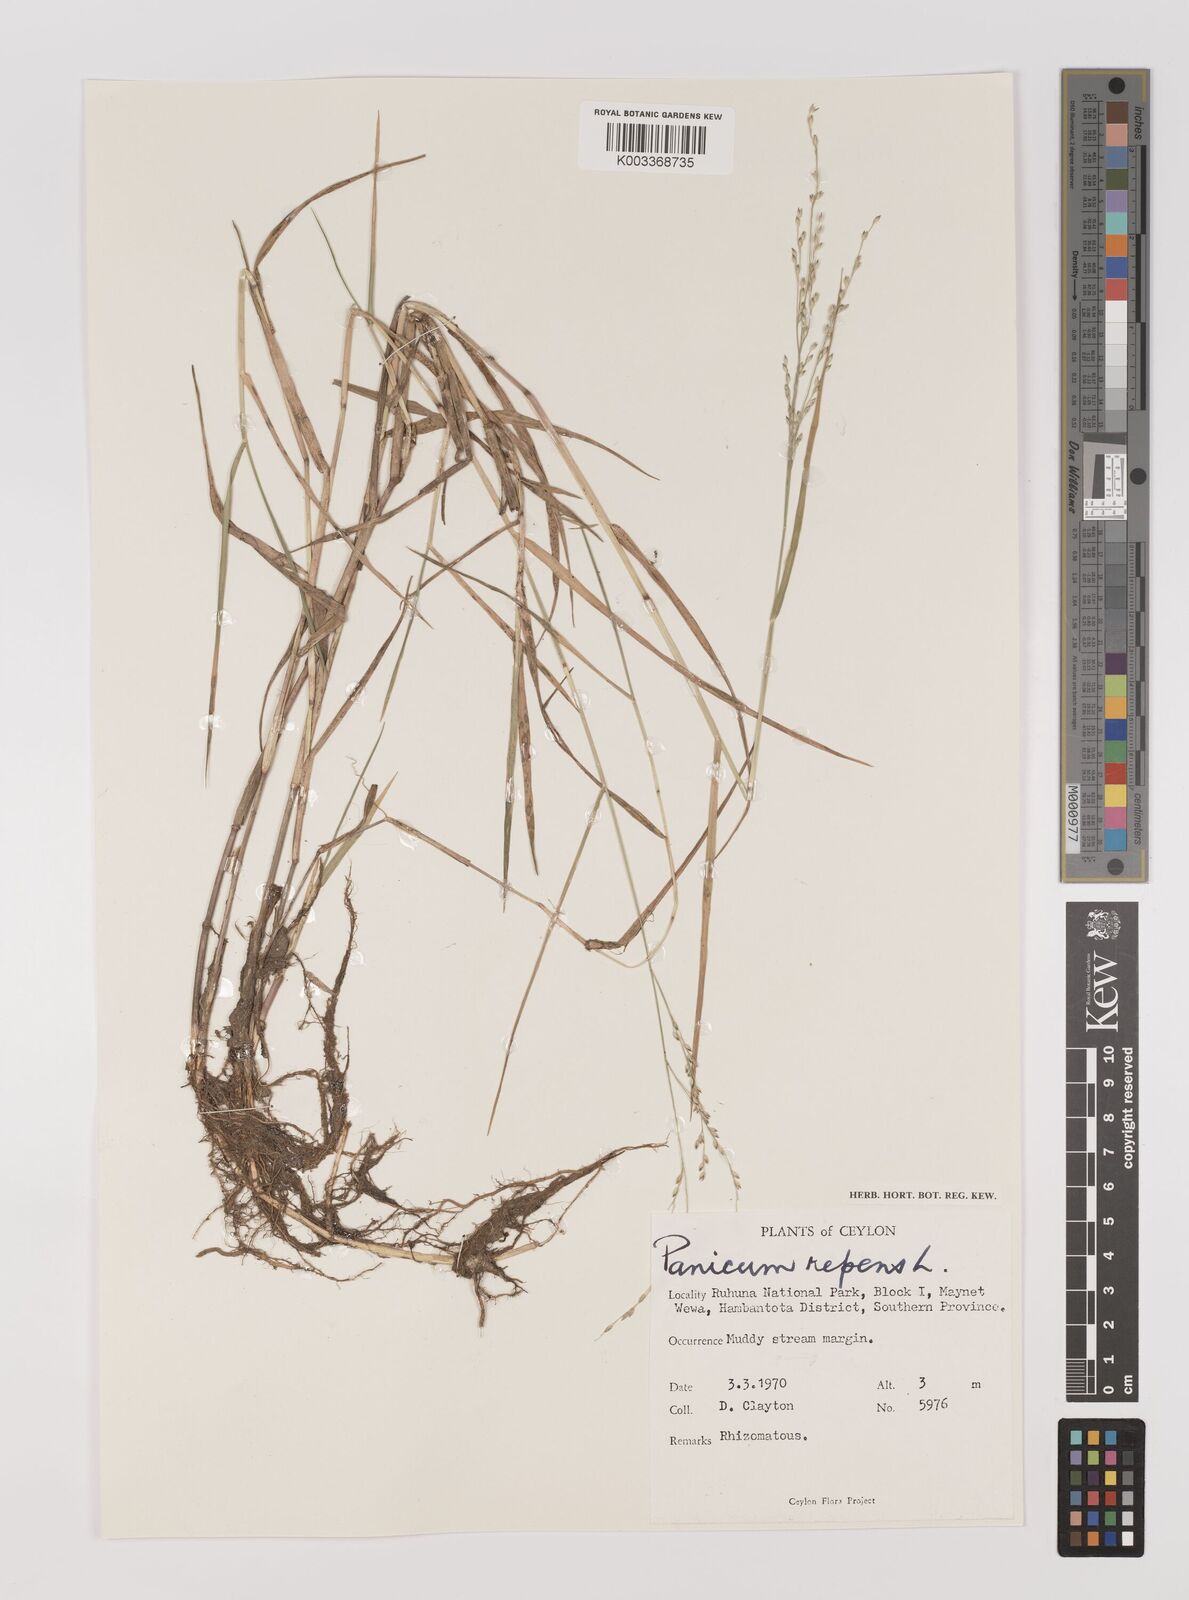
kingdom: Plantae
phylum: Tracheophyta
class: Liliopsida
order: Poales
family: Poaceae
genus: Panicum
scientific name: Panicum repens
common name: Torpedo grass
